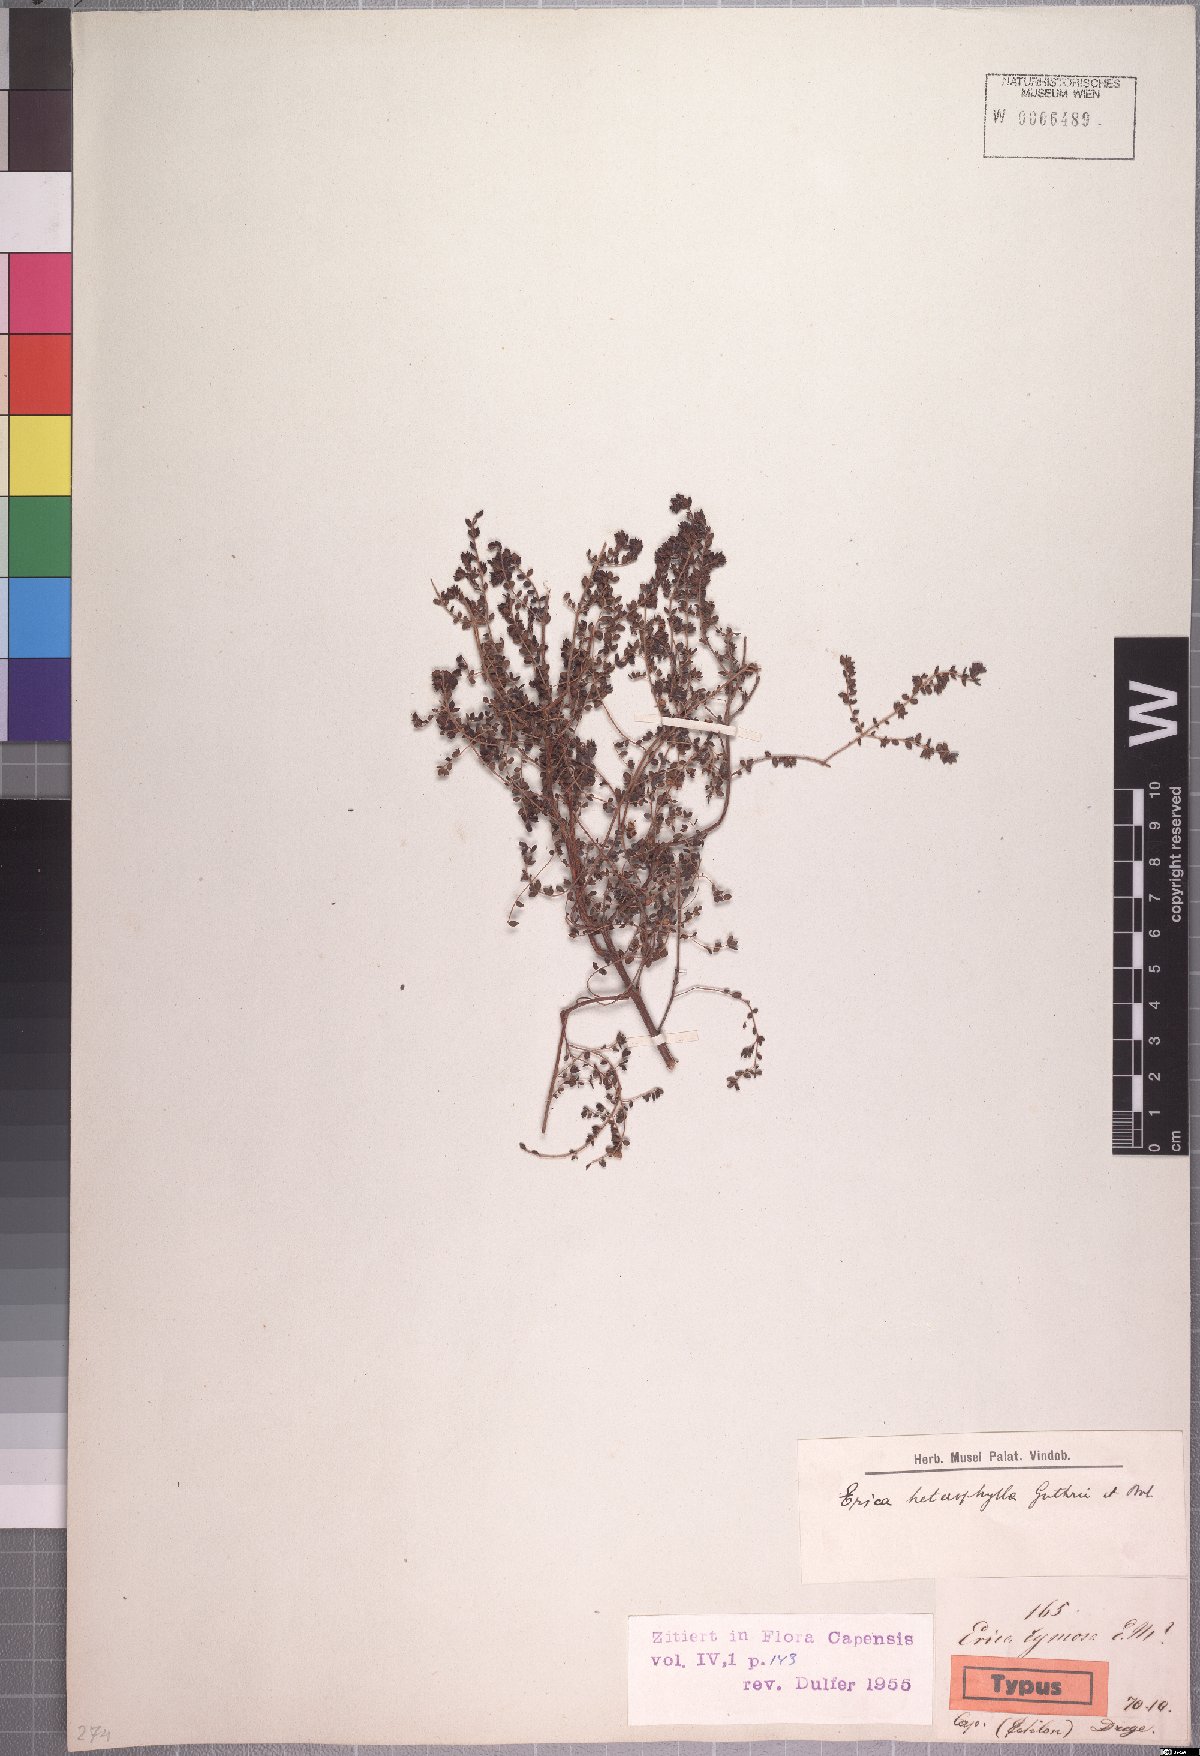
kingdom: Plantae
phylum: Tracheophyta
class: Magnoliopsida
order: Ericales
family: Ericaceae
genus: Erica
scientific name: Erica heterophylla
